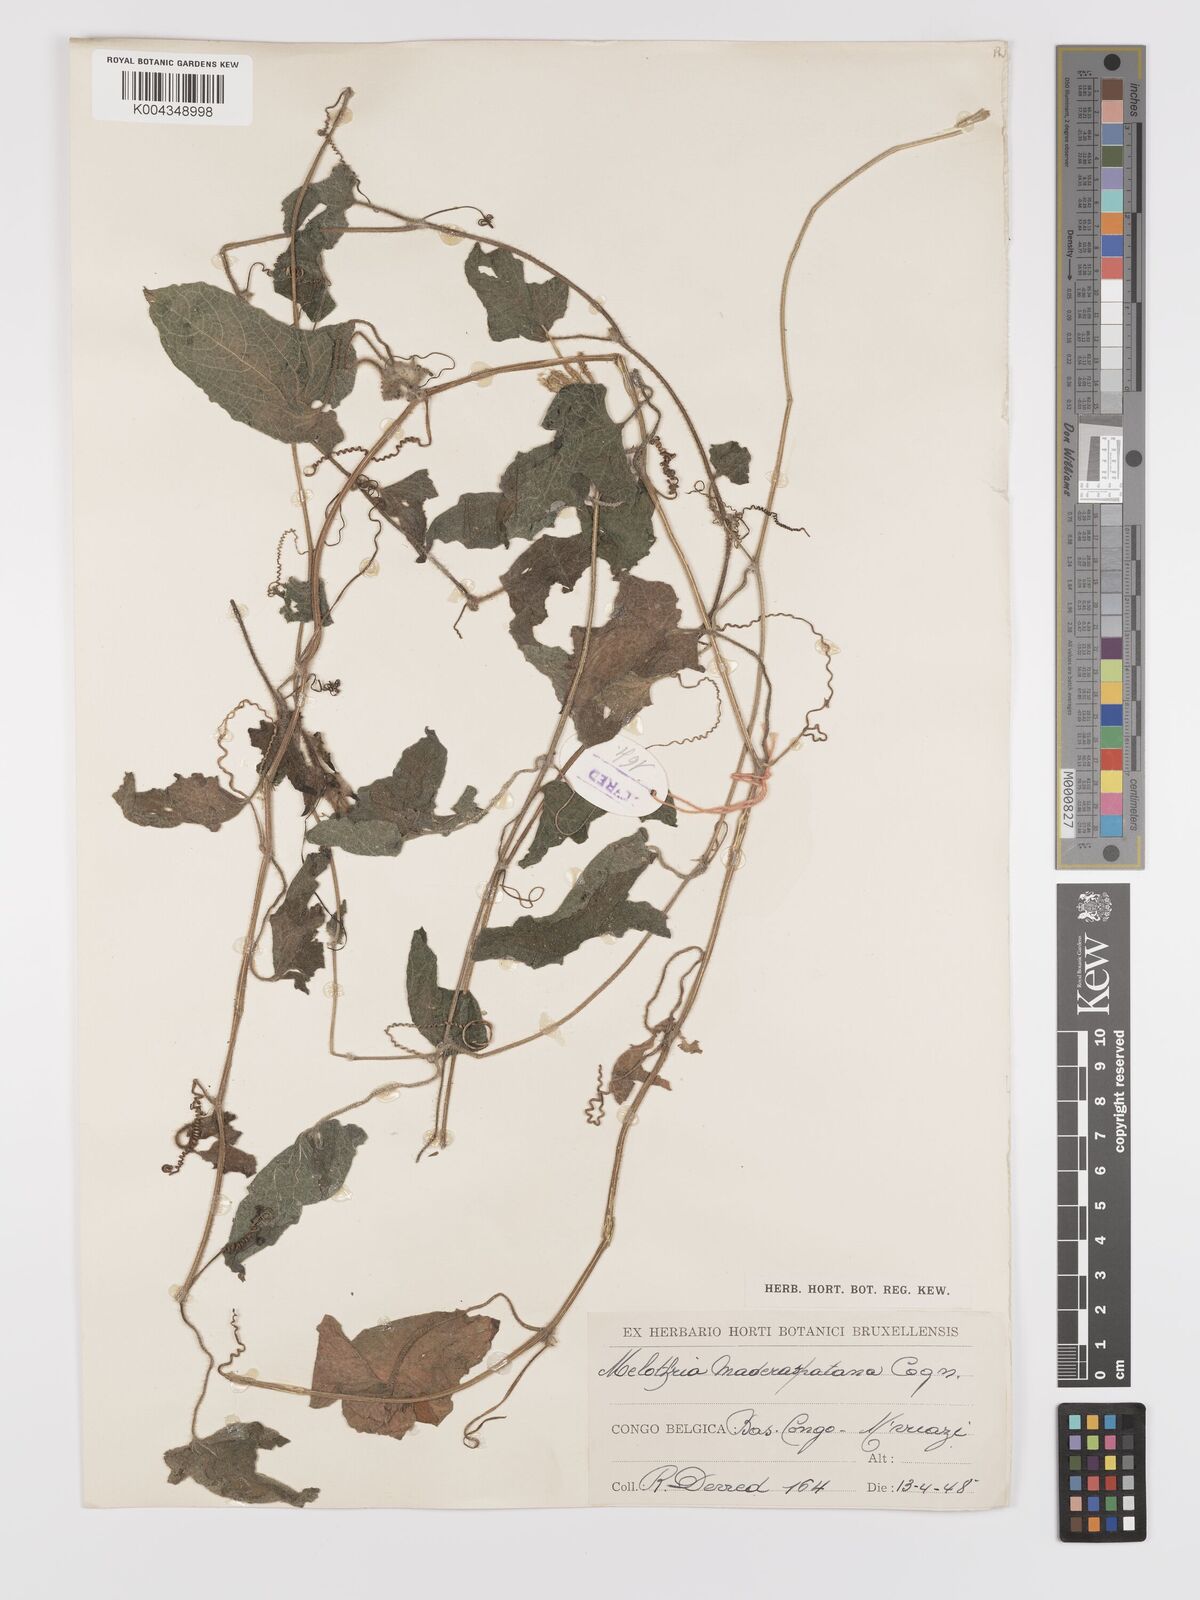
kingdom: Plantae
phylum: Tracheophyta
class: Magnoliopsida
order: Cucurbitales
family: Cucurbitaceae
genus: Cucumis
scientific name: Cucumis maderaspatanus
